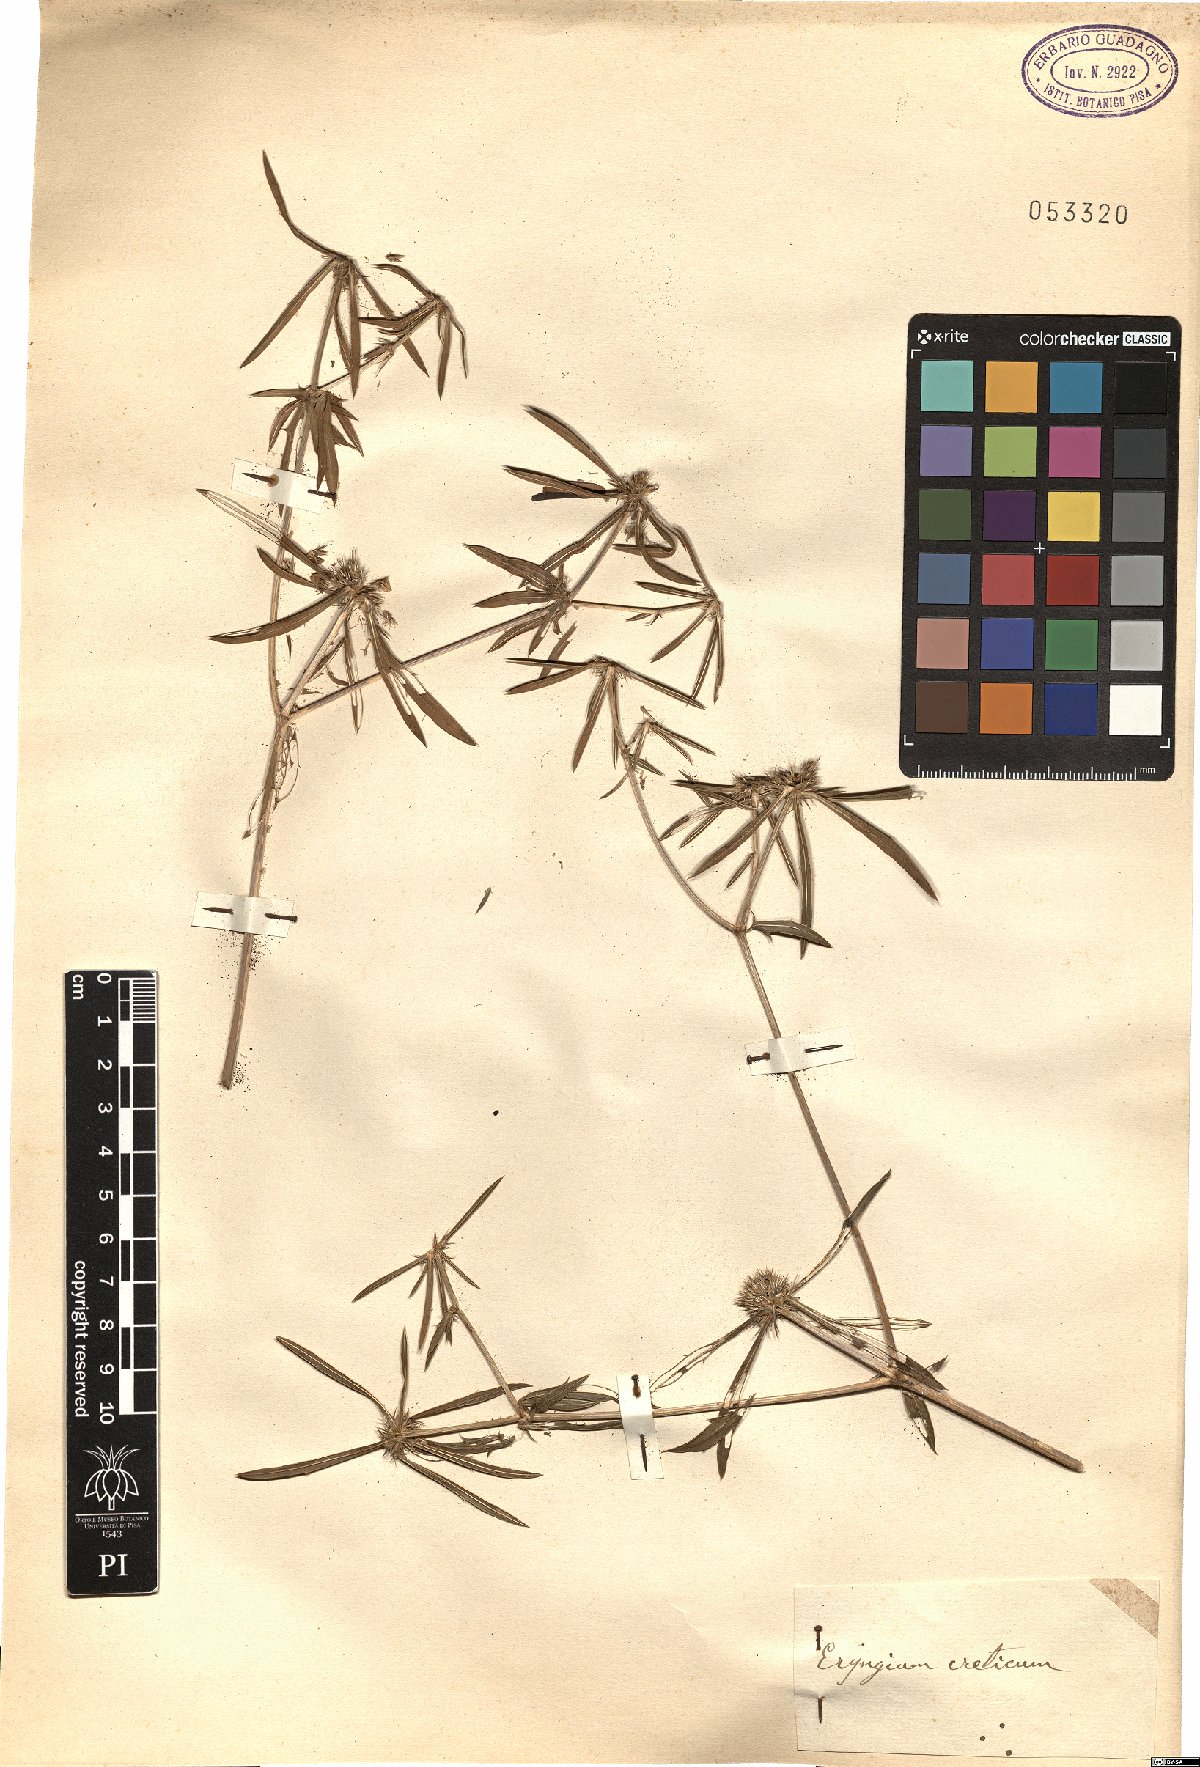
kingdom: Plantae
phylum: Tracheophyta
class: Magnoliopsida
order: Apiales
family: Apiaceae
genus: Eryngium
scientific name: Eryngium creticum
